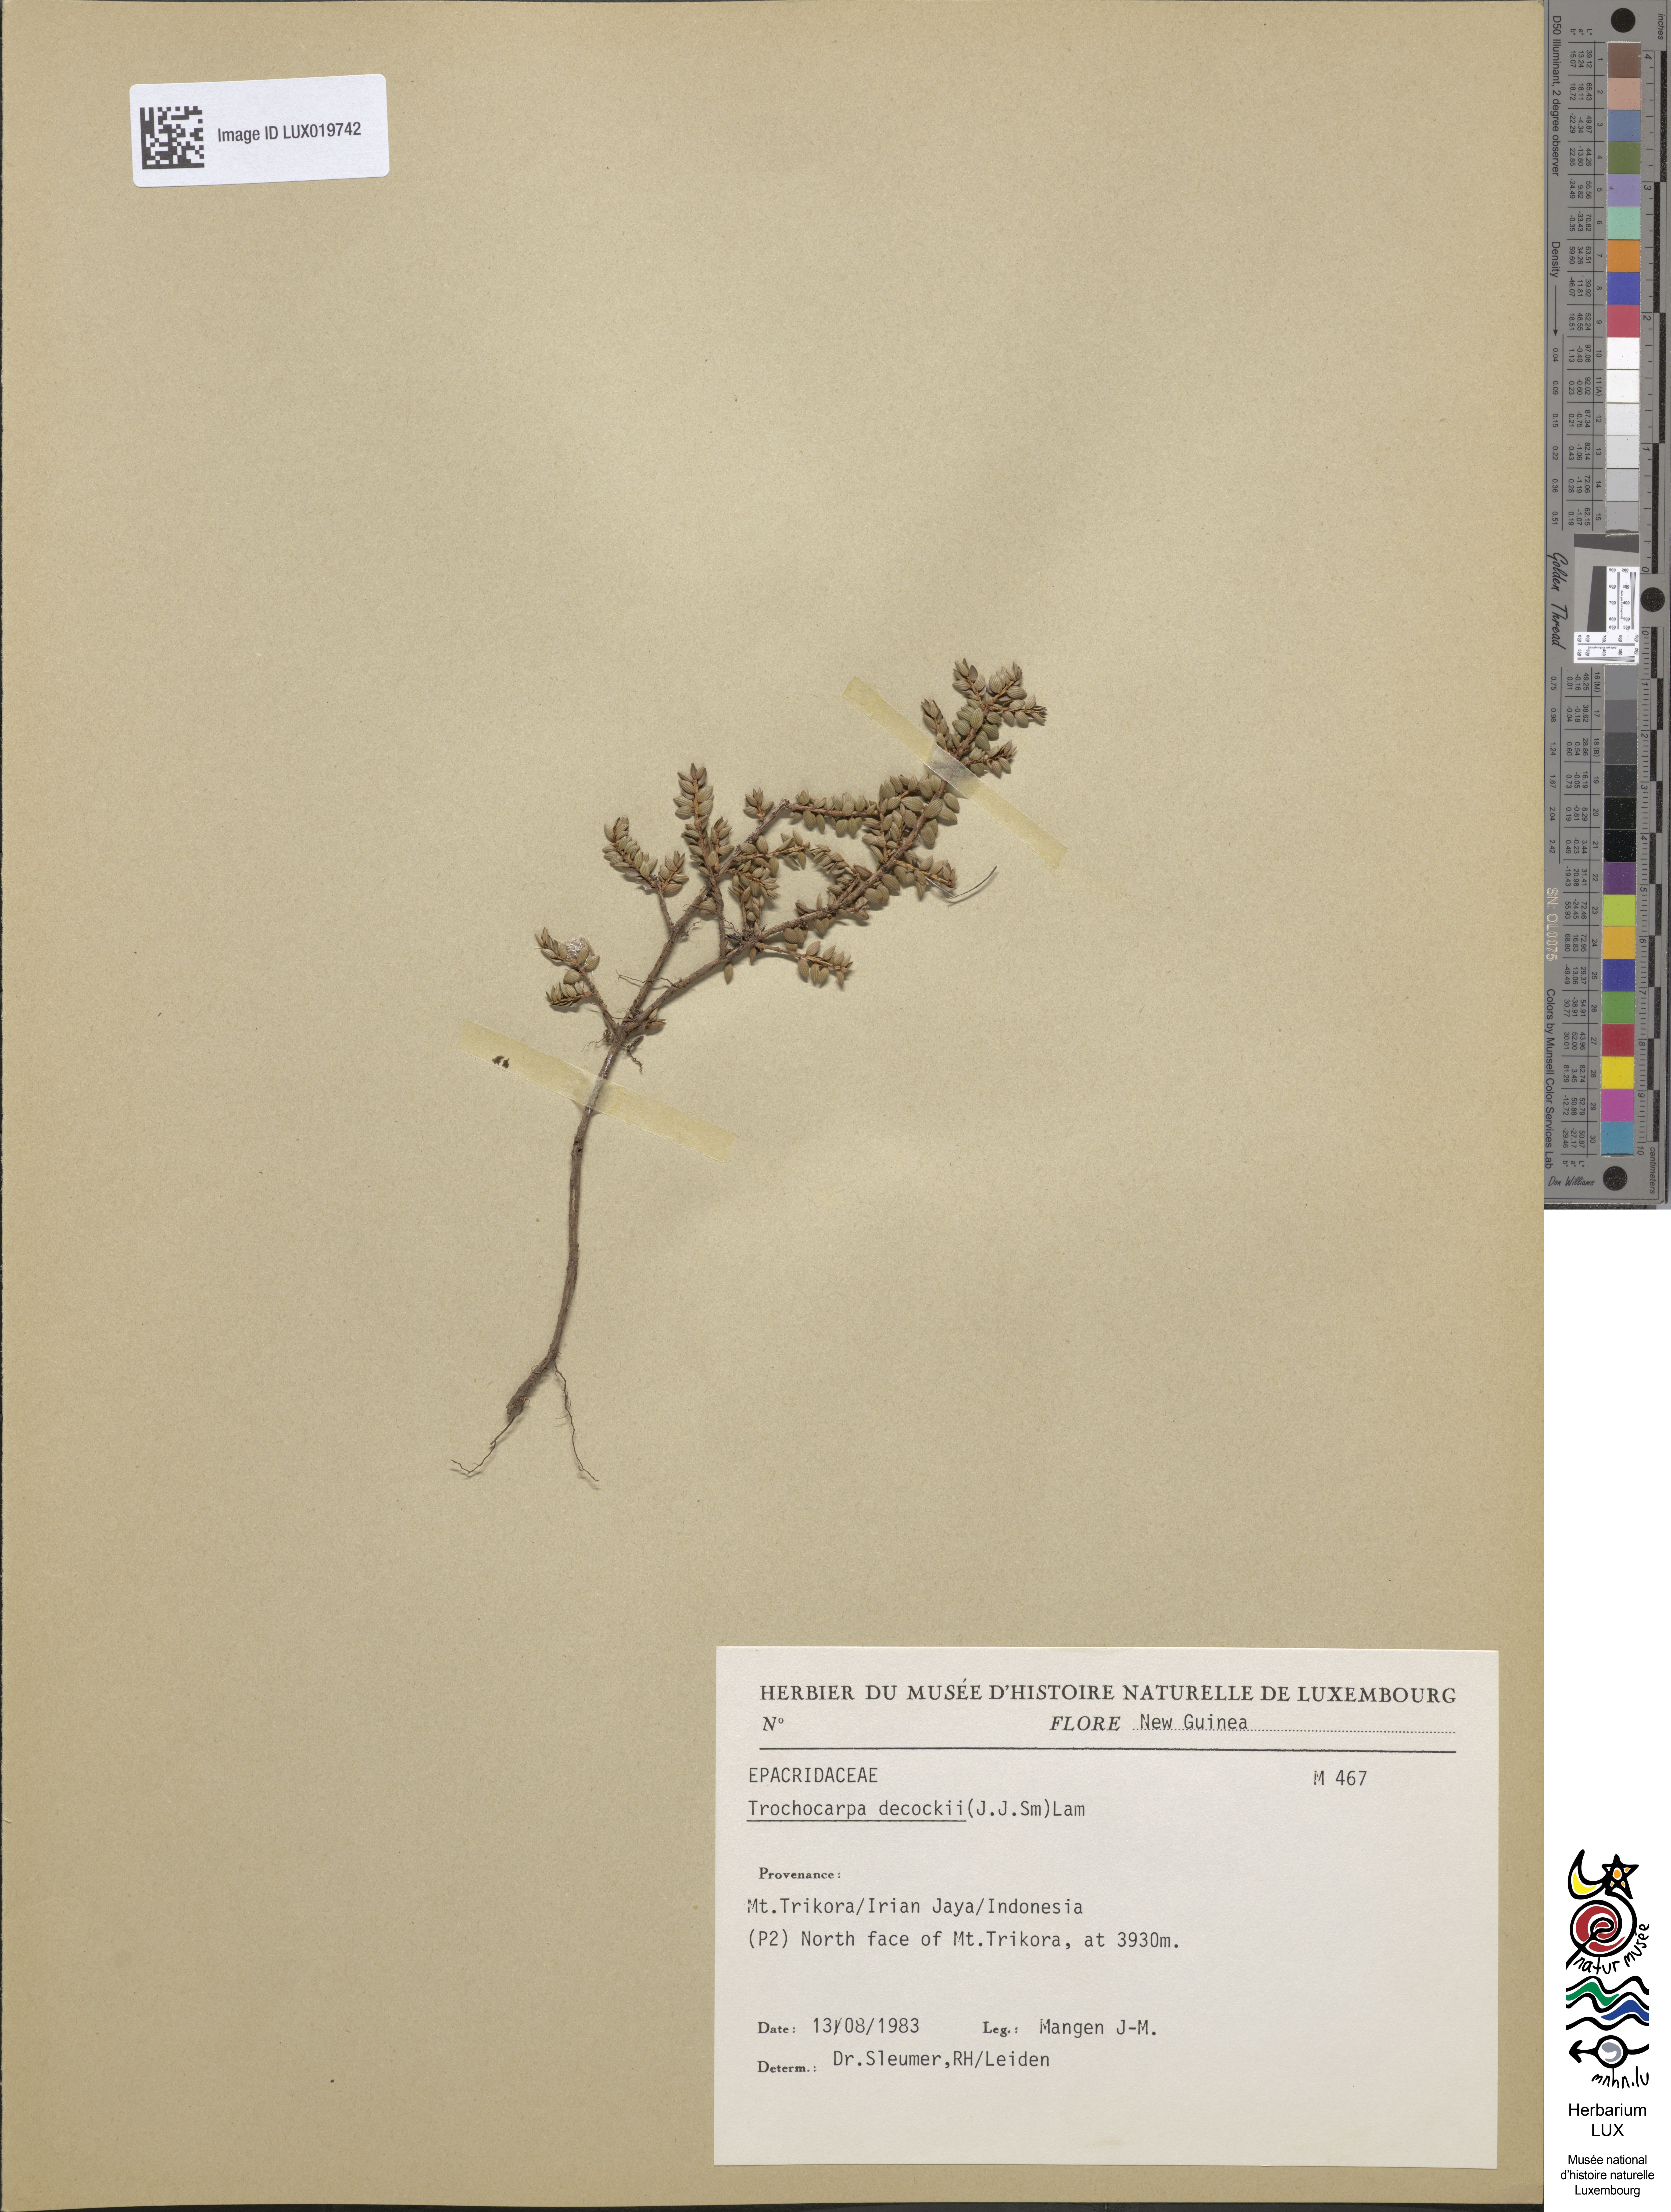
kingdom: Plantae
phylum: Tracheophyta
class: Magnoliopsida
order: Ericales
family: Ericaceae
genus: Trochocarpa
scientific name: Trochocarpa dekockii
